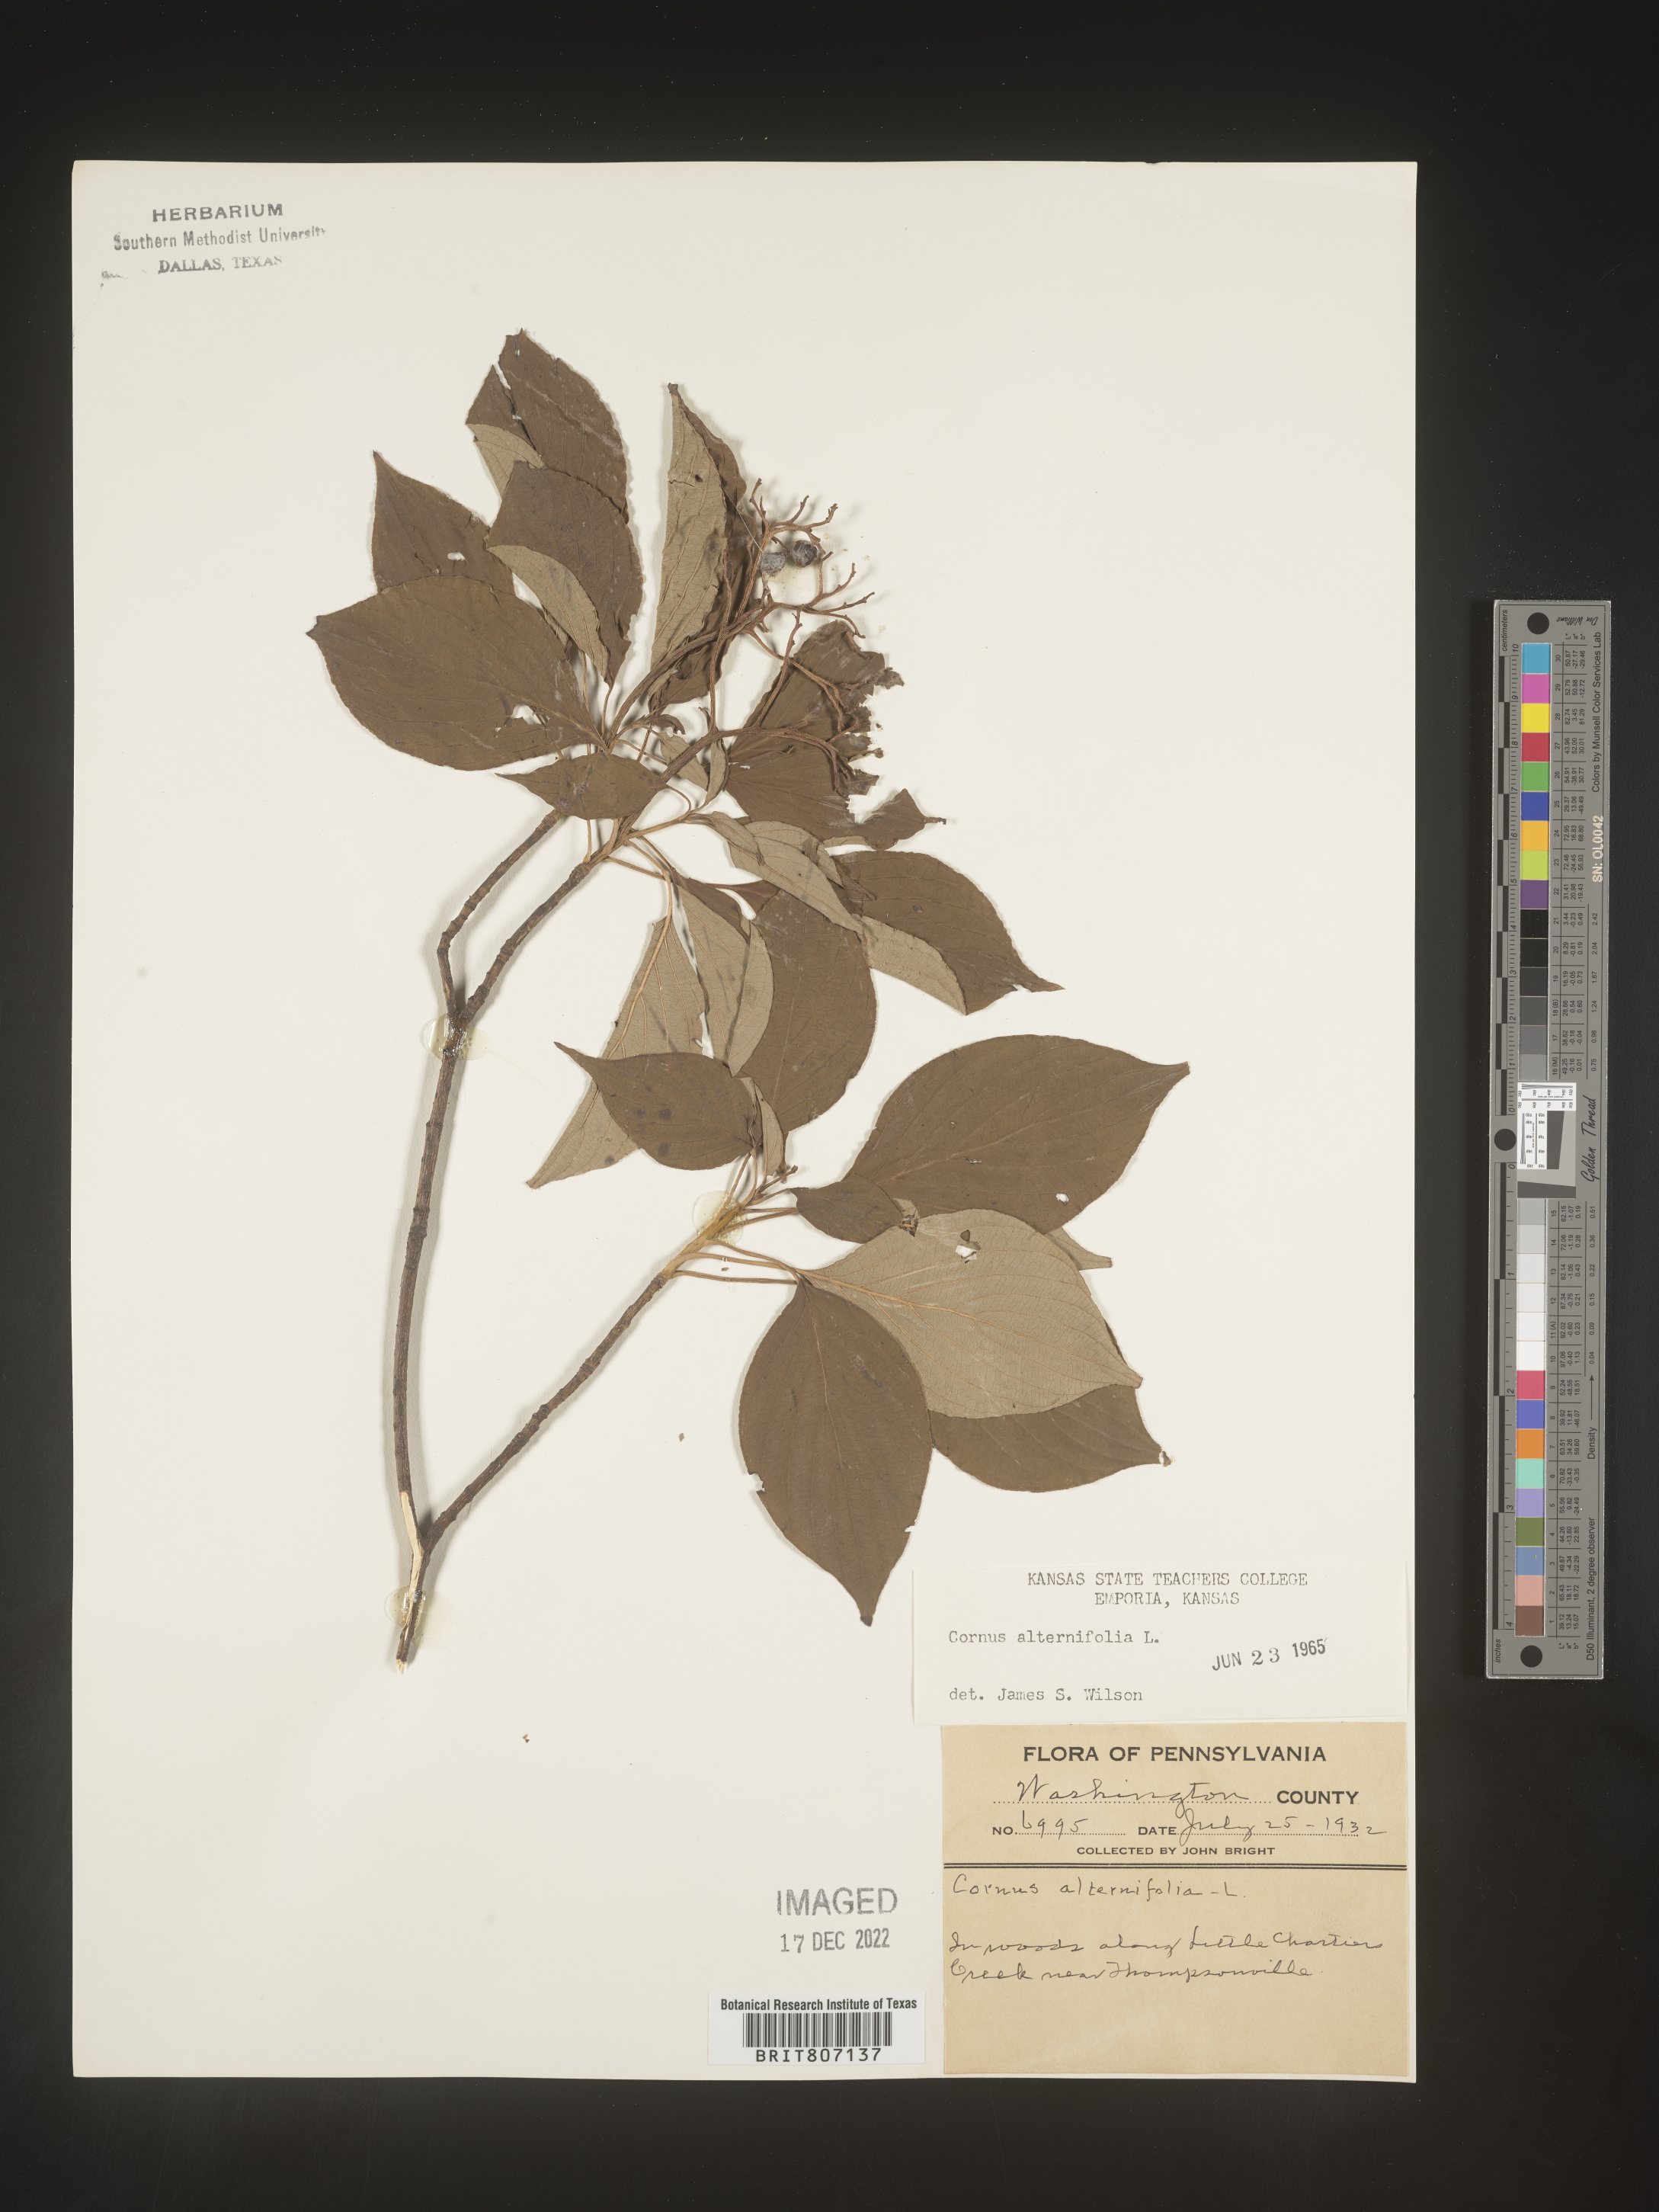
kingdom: Plantae
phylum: Tracheophyta
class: Magnoliopsida
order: Cornales
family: Cornaceae
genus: Cornus
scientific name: Cornus alternifolia
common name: Pagoda dogwood
